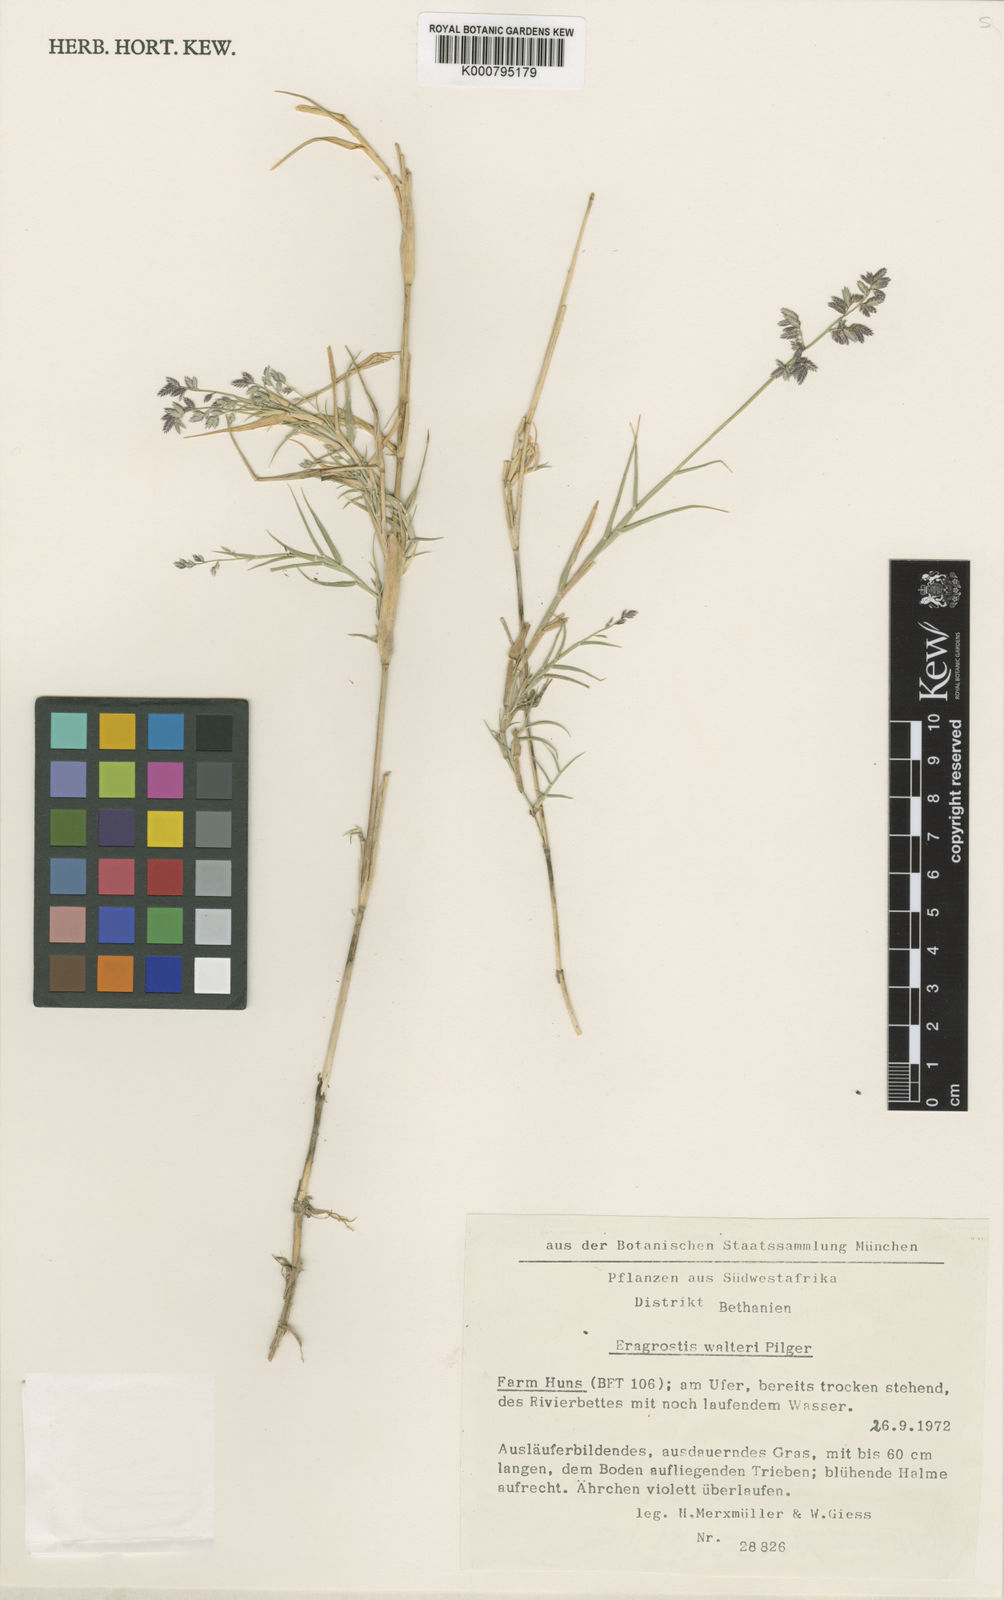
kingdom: Plantae
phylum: Tracheophyta
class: Liliopsida
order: Poales
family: Poaceae
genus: Pratochloa
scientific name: Pratochloa walteri
